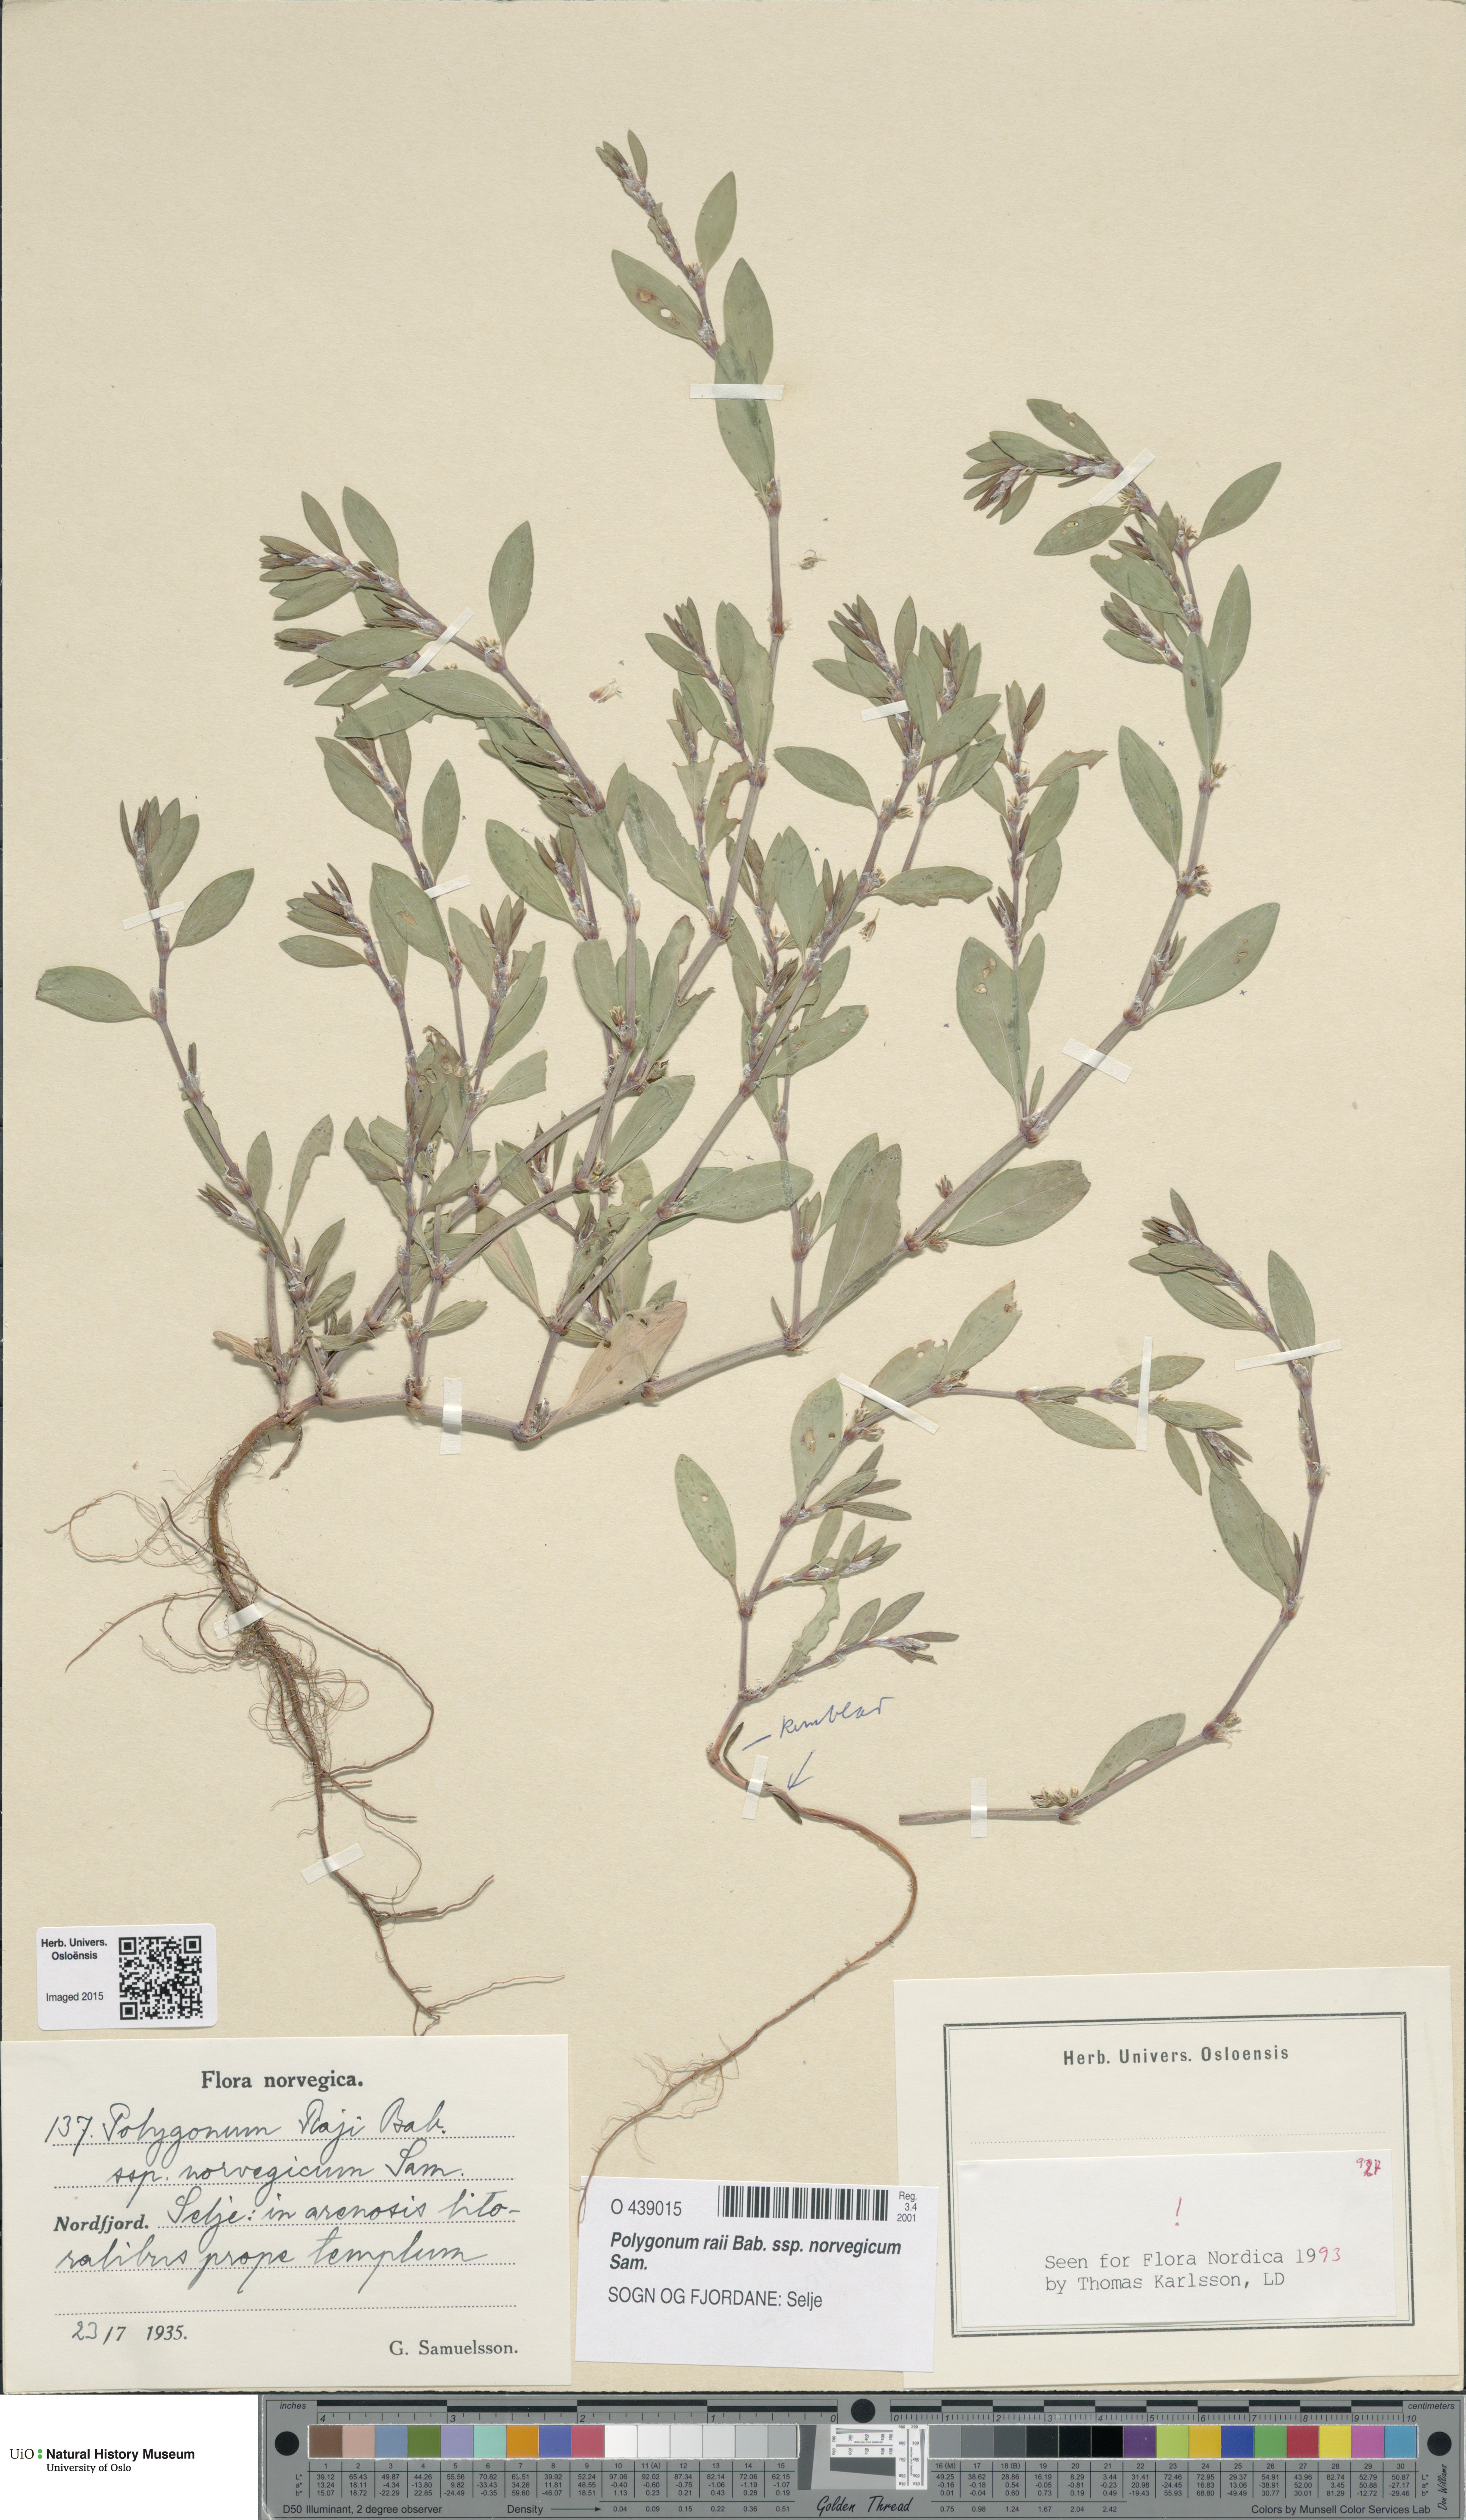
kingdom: Plantae
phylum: Tracheophyta
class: Magnoliopsida
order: Caryophyllales
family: Polygonaceae
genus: Polygonum
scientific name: Polygonum norvegicum
